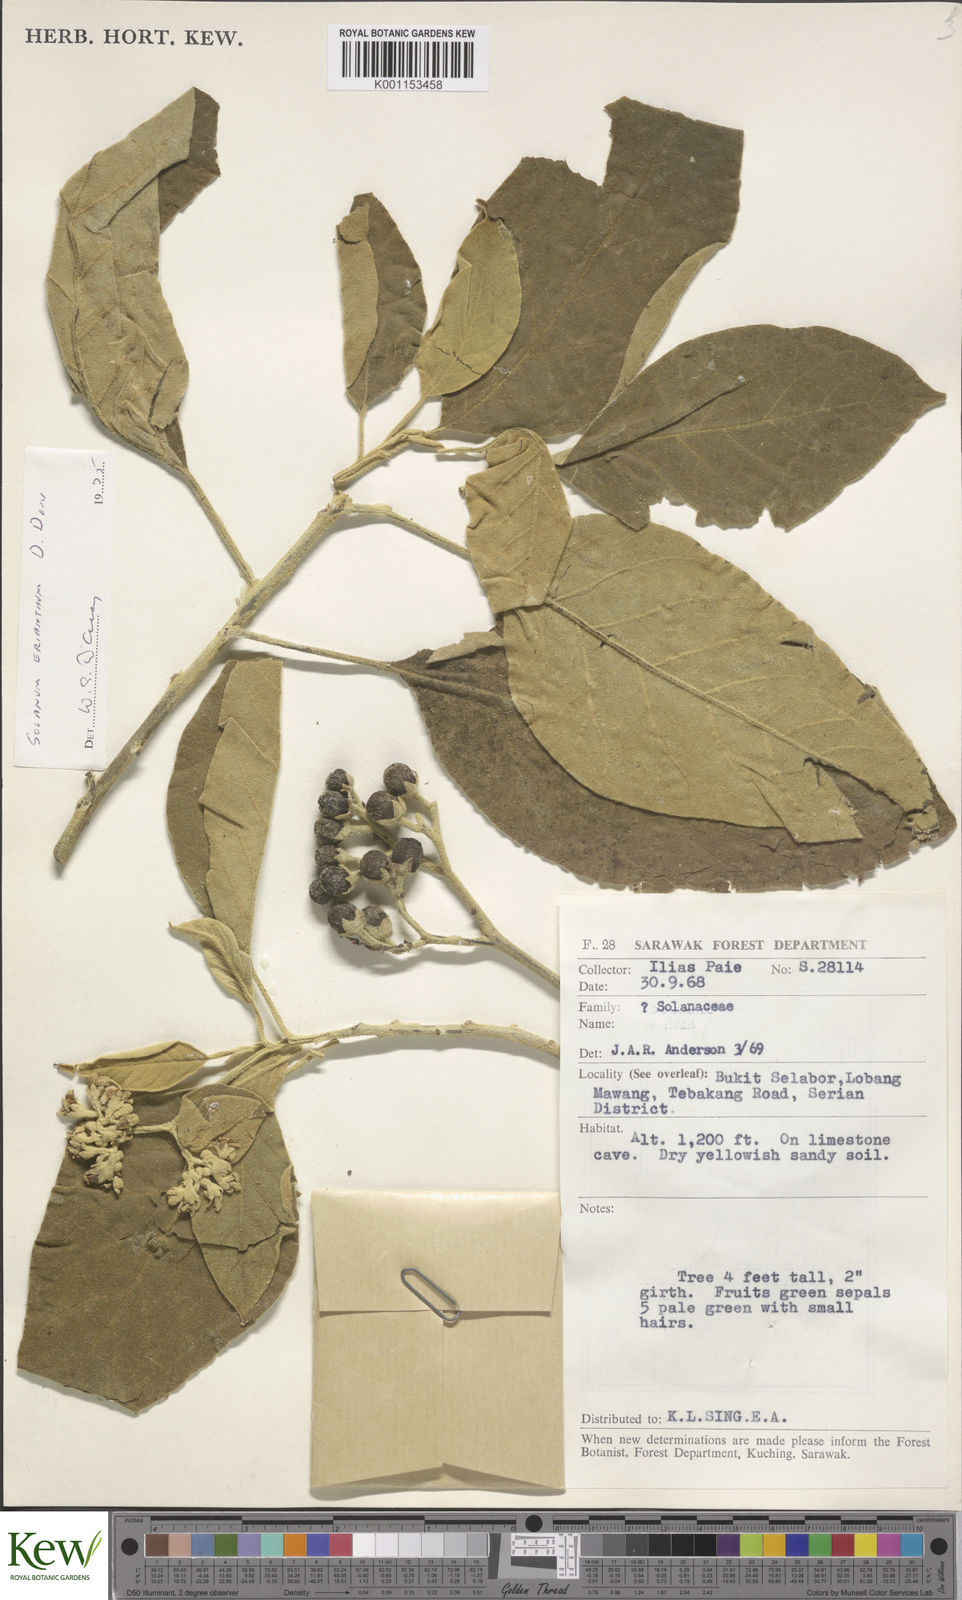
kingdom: Plantae
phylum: Tracheophyta
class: Magnoliopsida
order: Solanales
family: Solanaceae
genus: Solanum
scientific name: Solanum erianthum
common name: Tobacco-tree
